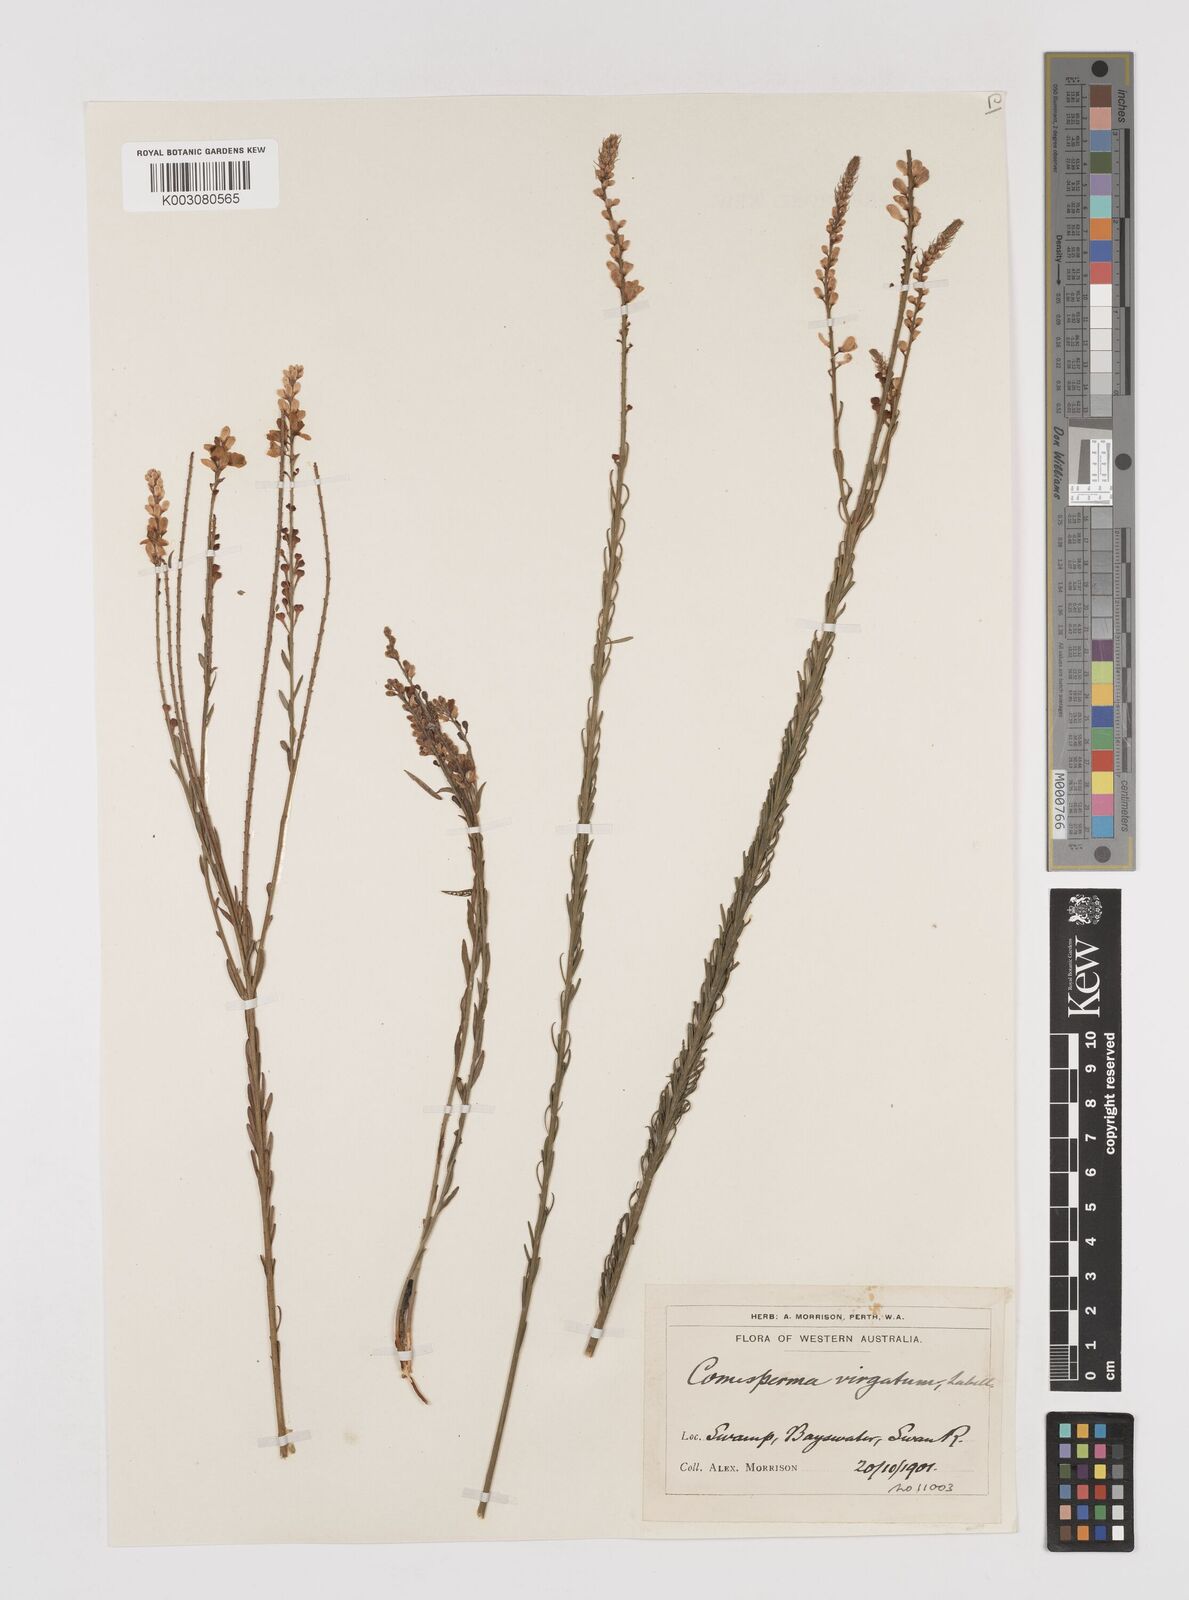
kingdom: Plantae
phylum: Tracheophyta
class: Magnoliopsida
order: Fabales
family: Polygalaceae
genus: Comesperma
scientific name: Comesperma virgatum
